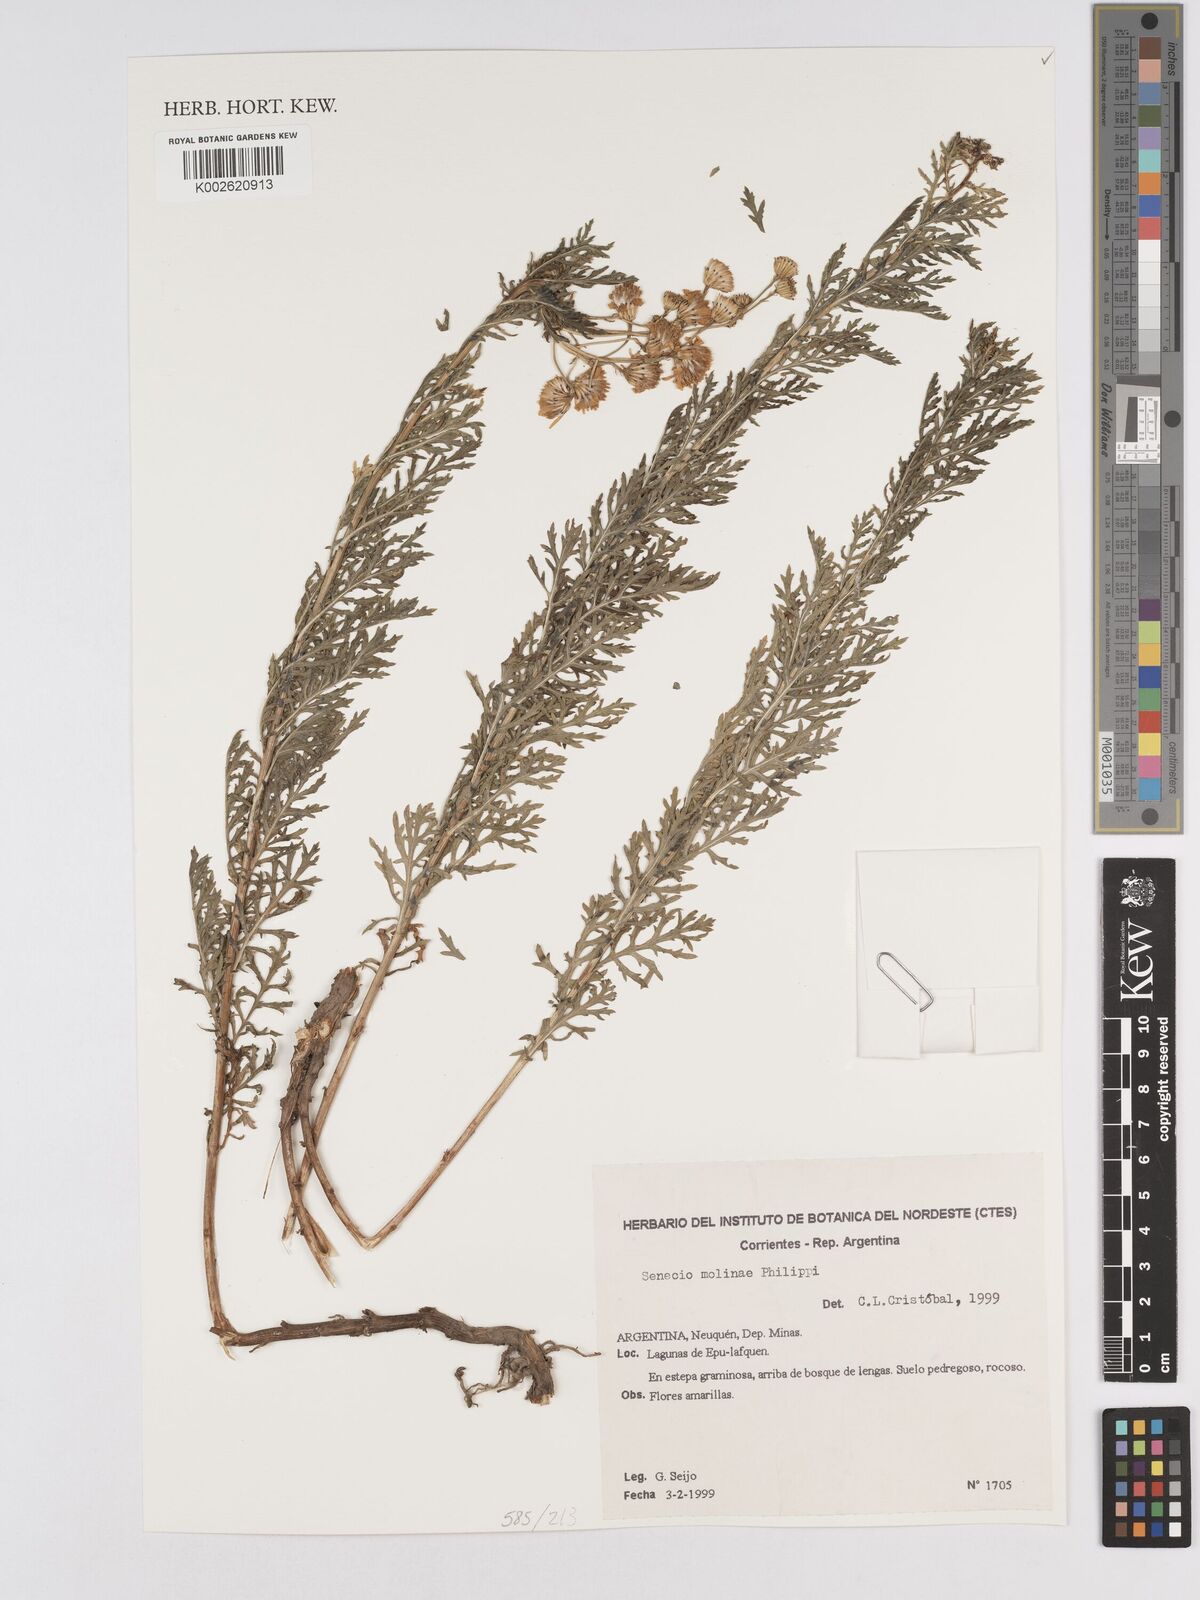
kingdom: Plantae
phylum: Tracheophyta
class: Magnoliopsida
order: Asterales
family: Asteraceae
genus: Senecio
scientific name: Senecio glaber
